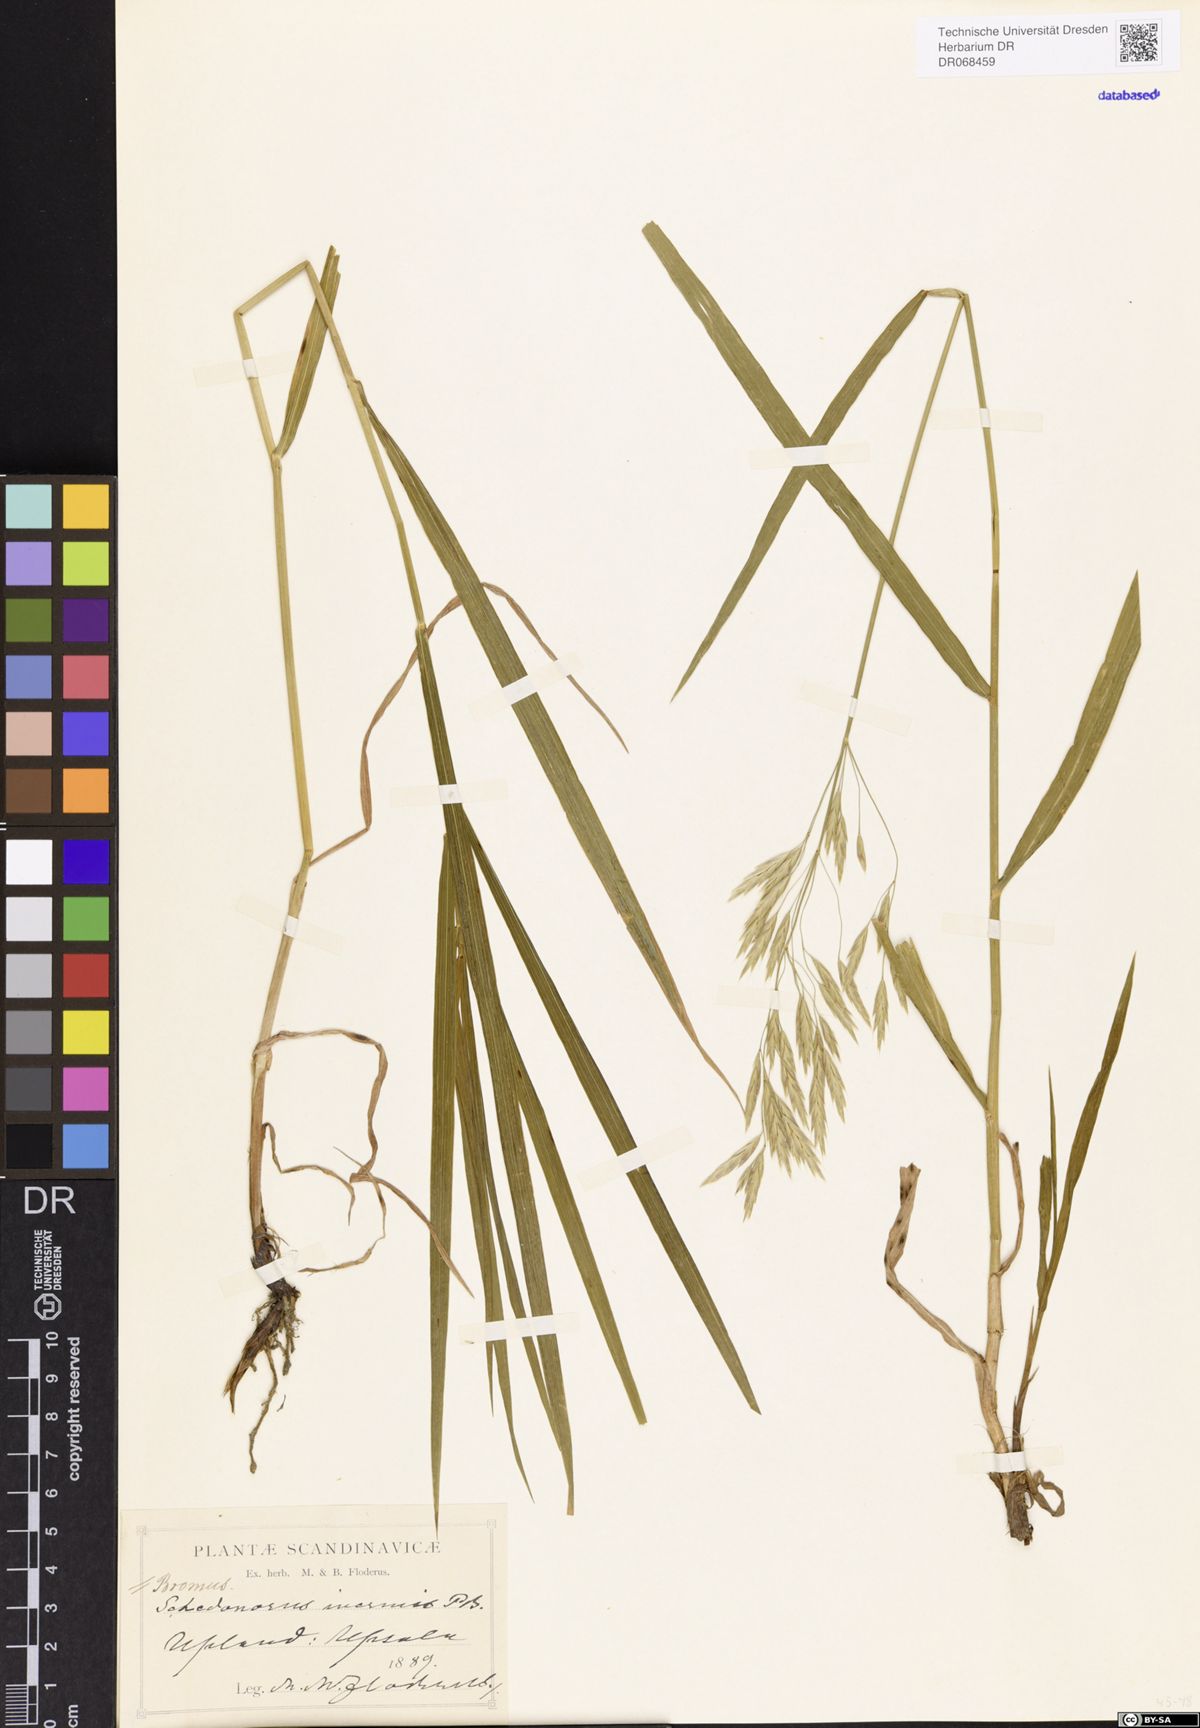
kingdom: Plantae
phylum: Tracheophyta
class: Liliopsida
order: Poales
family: Poaceae
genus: Bromus
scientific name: Bromus inermis
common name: Smooth brome
